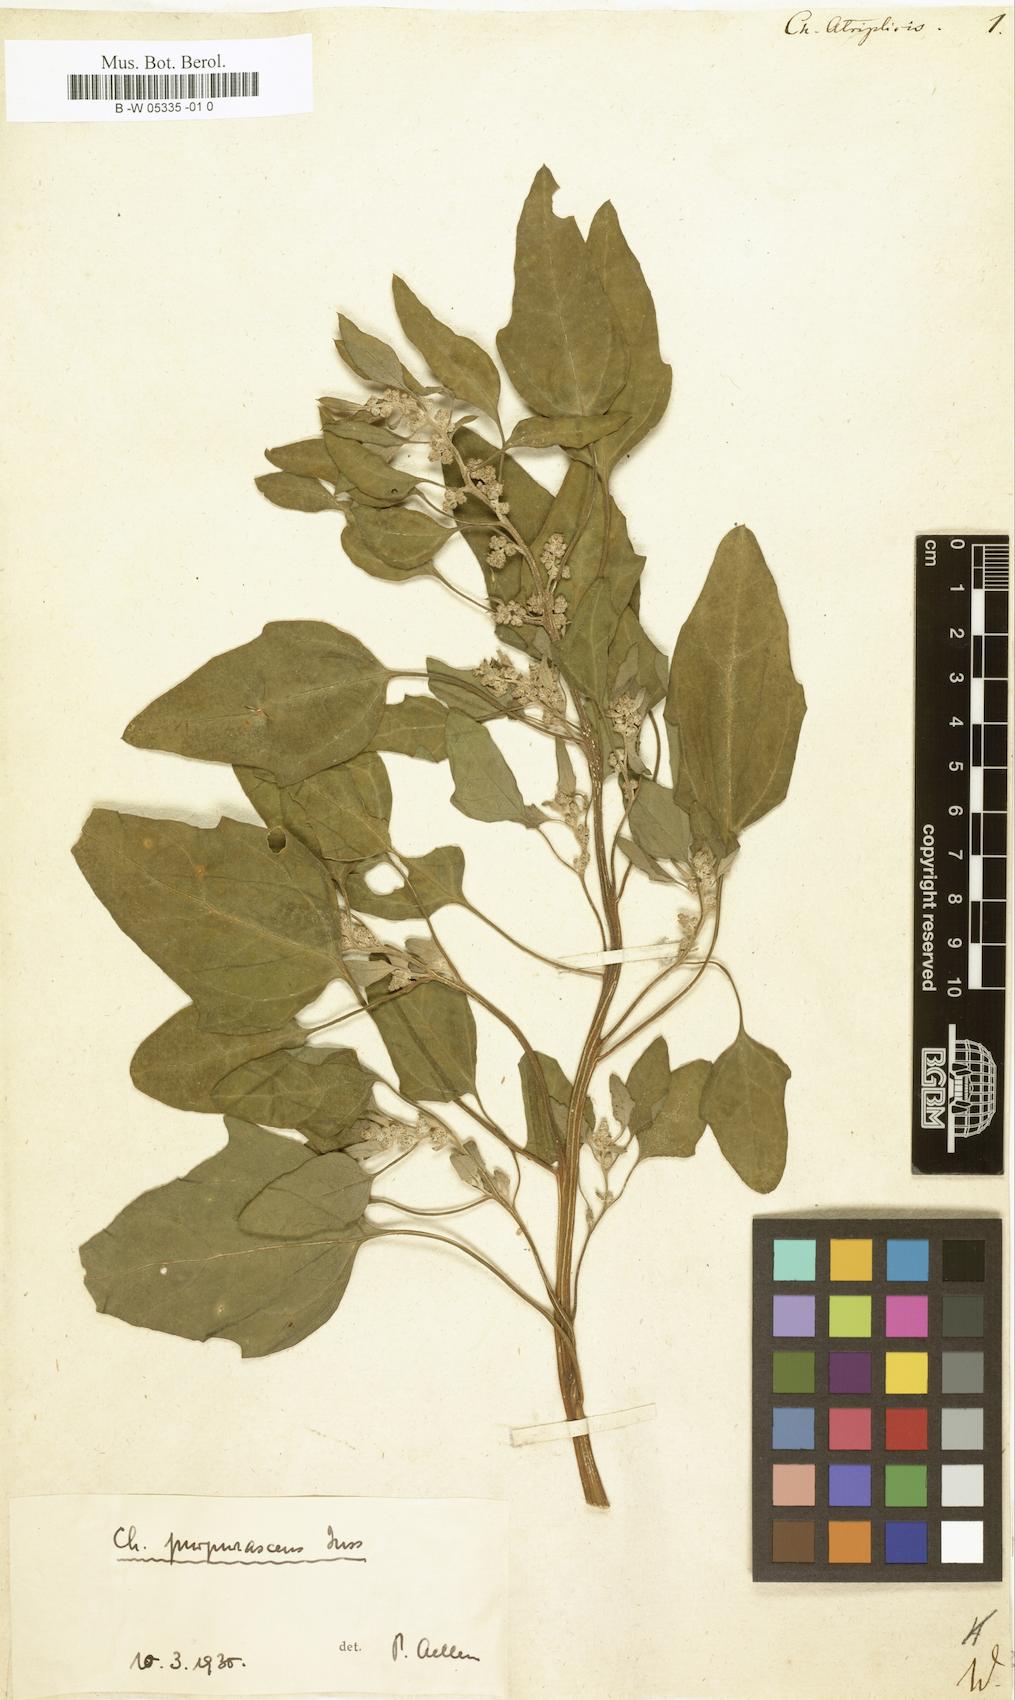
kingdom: Plantae
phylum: Tracheophyta
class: Magnoliopsida
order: Caryophyllales
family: Amaranthaceae
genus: Chenopodium
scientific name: Chenopodium quinoa
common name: Quinoa
